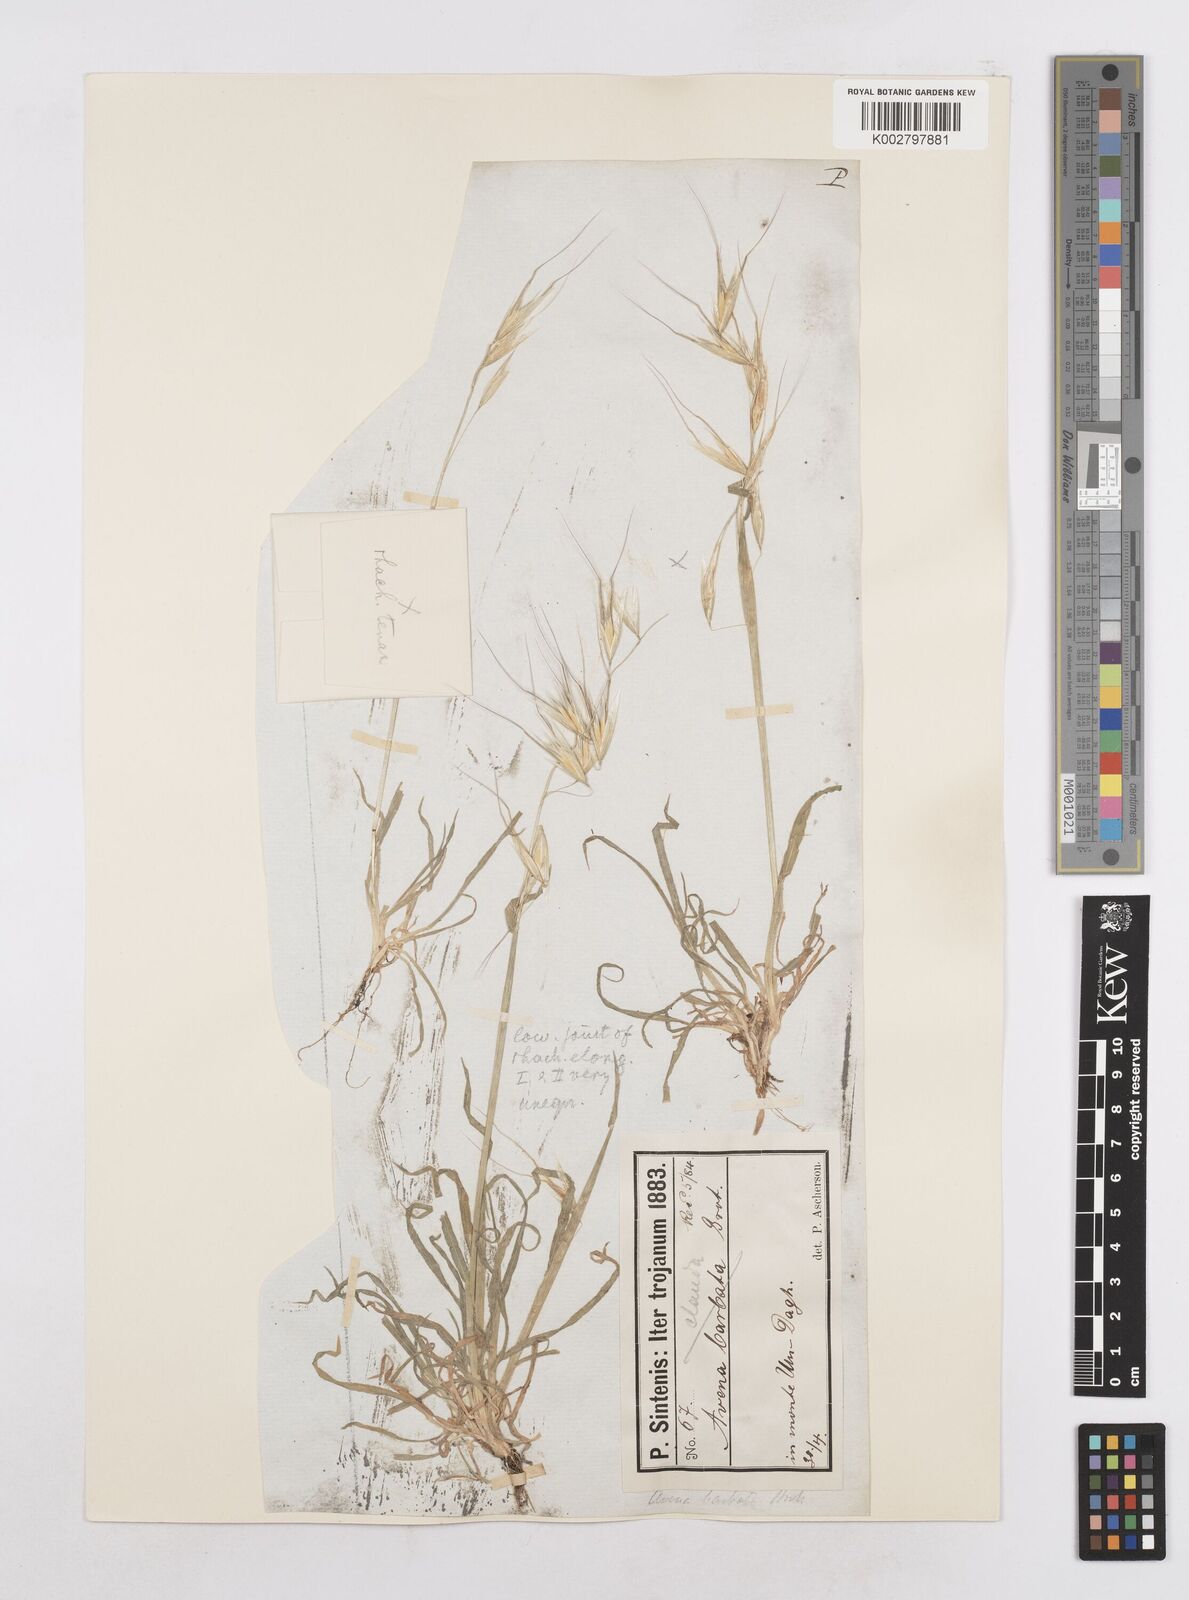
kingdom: Plantae
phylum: Tracheophyta
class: Liliopsida
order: Poales
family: Poaceae
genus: Avena
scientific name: Avena eriantha
